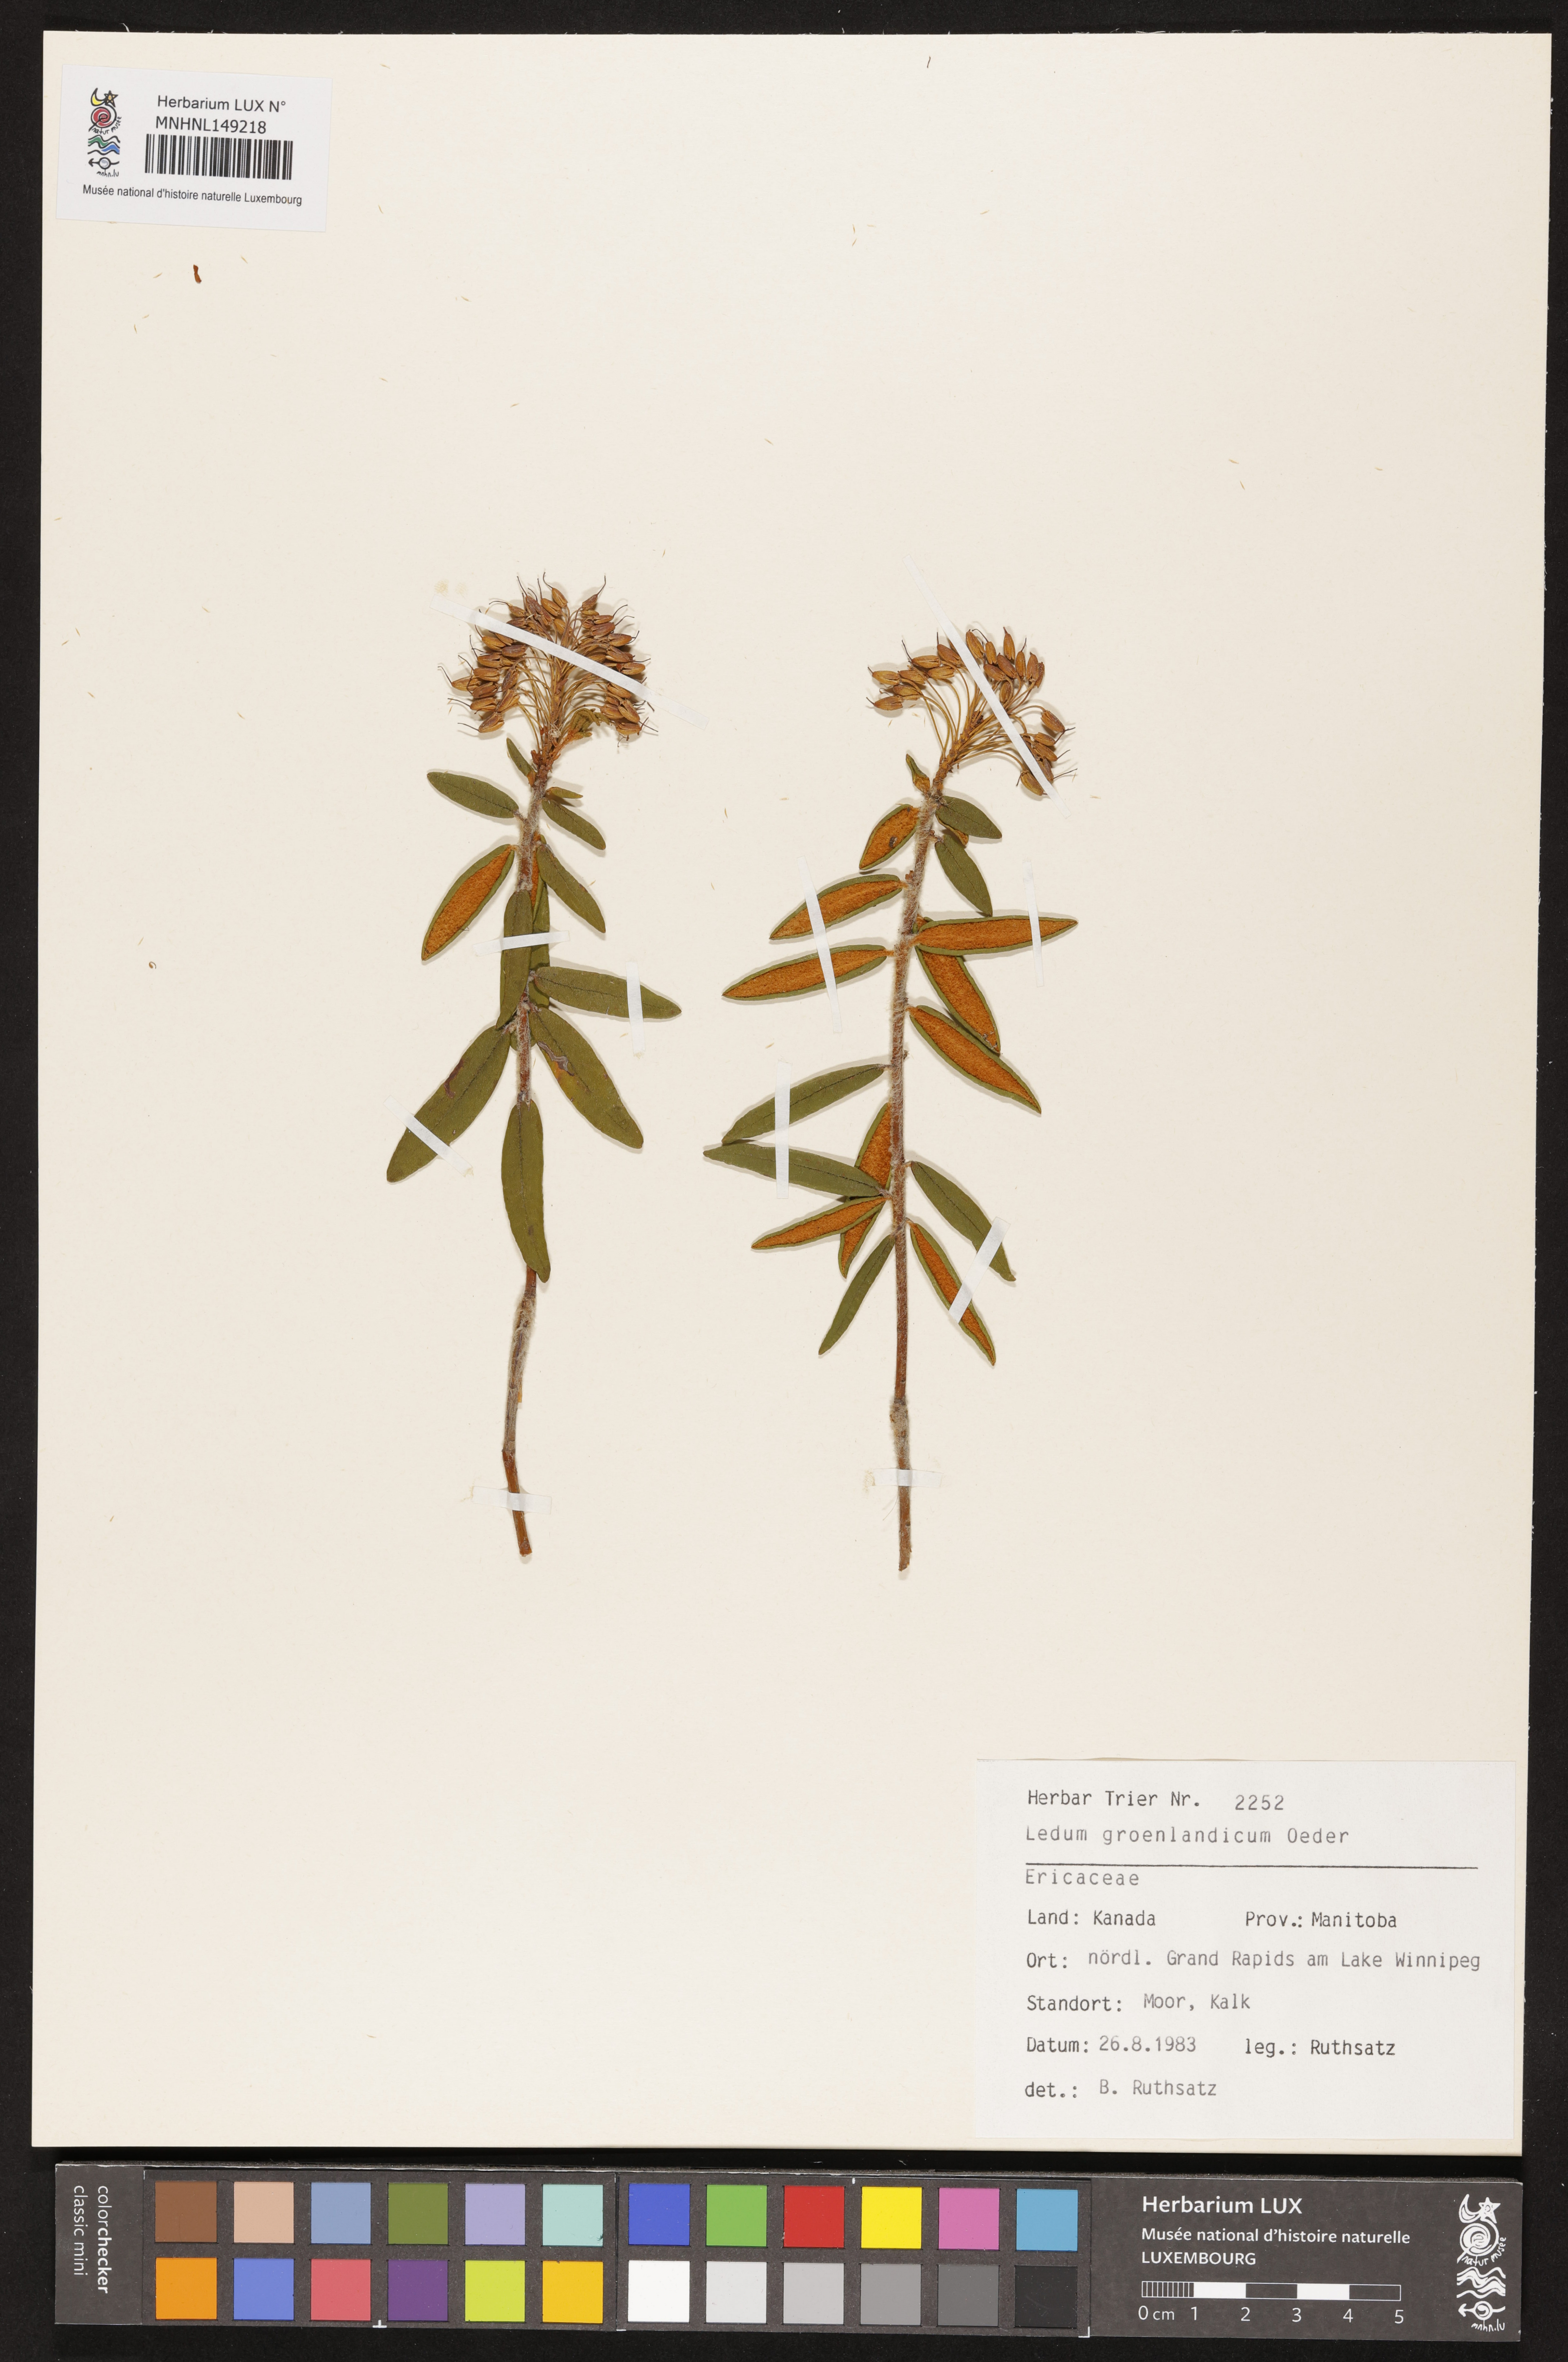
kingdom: Plantae
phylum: Tracheophyta
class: Magnoliopsida
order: Ericales
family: Ericaceae
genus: Rhododendron
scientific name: Rhododendron groenlandicum
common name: Bog labrador tea
